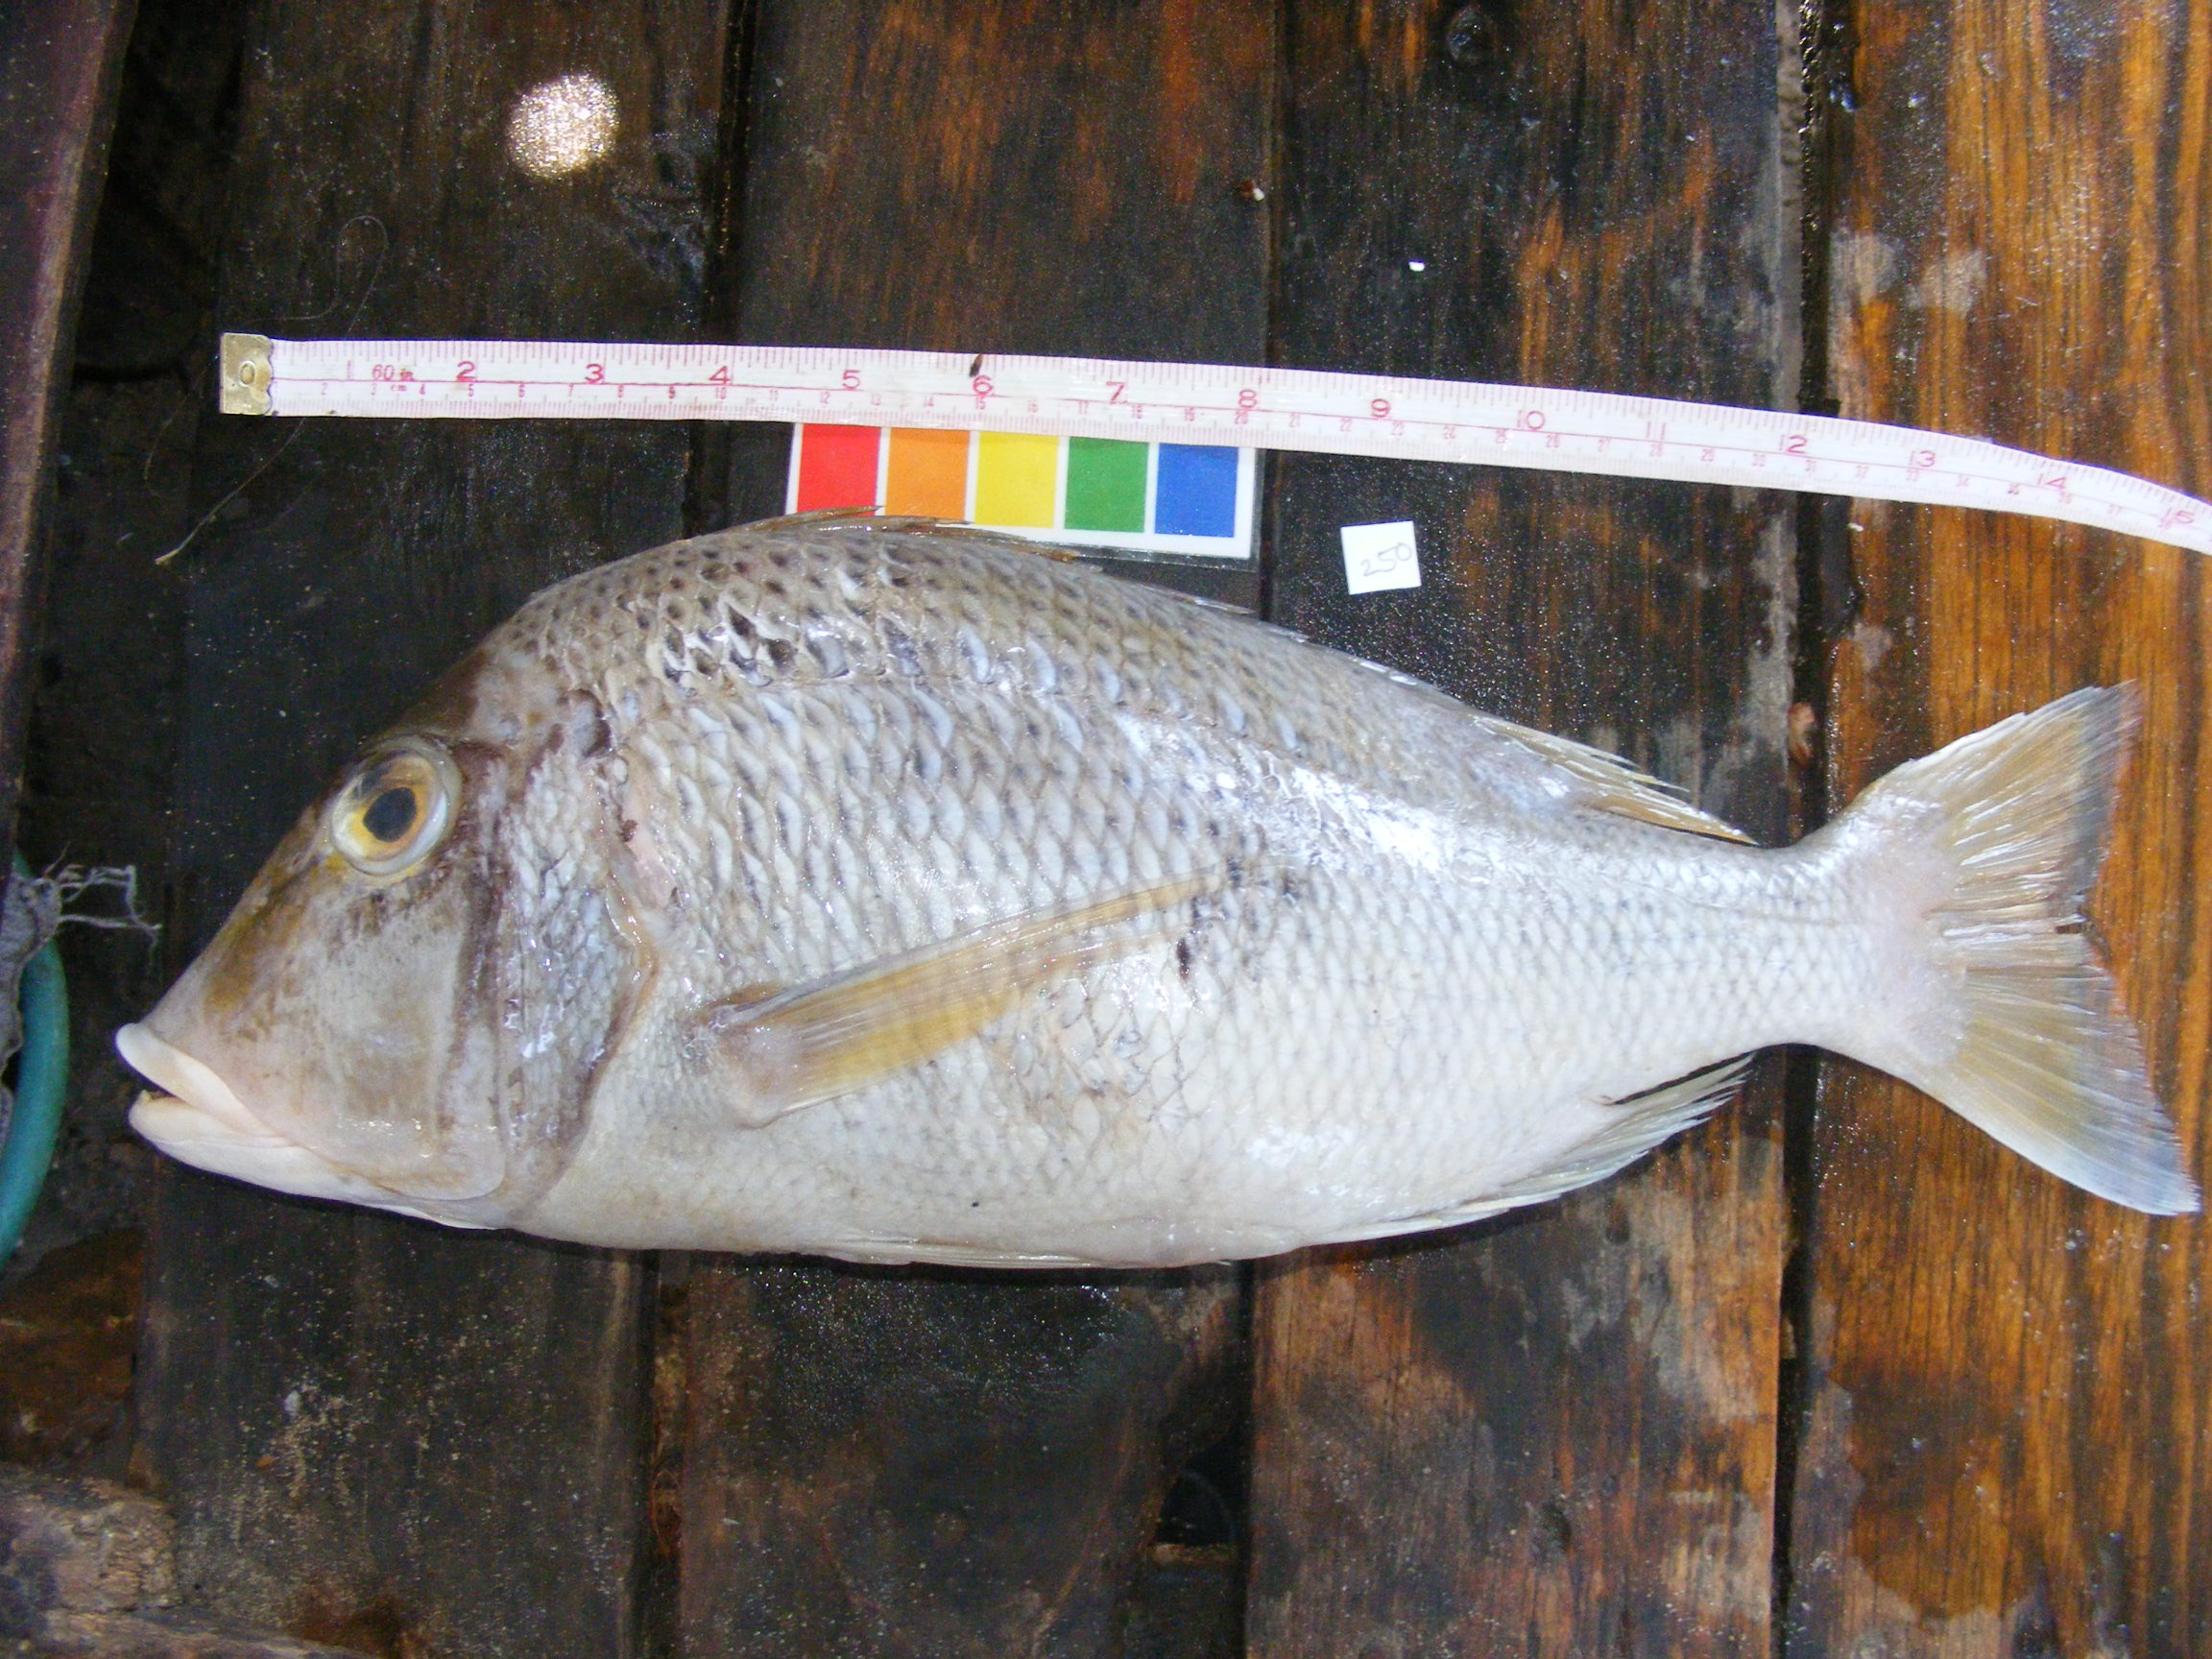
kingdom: Animalia
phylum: Chordata
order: Perciformes
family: Lethrinidae
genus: Lethrinus
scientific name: Lethrinus mahsena
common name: Sky emperor
